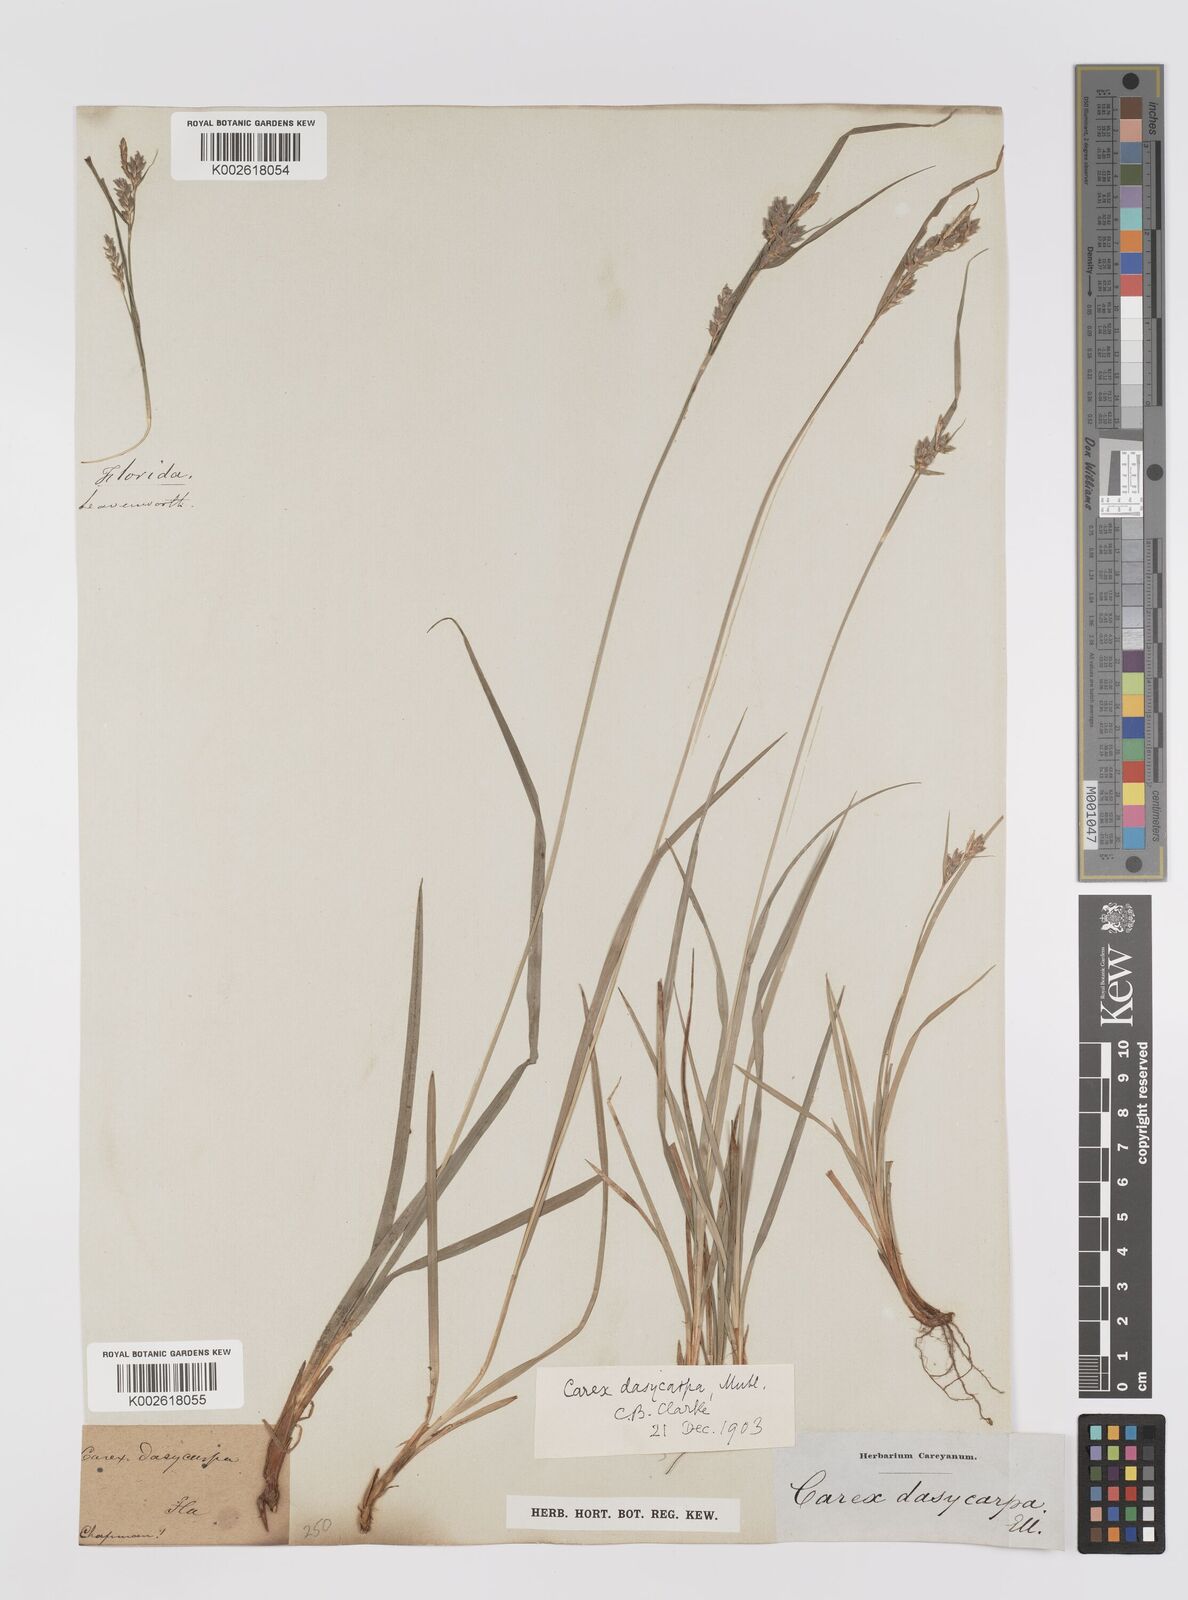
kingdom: Plantae
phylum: Tracheophyta
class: Liliopsida
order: Poales
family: Cyperaceae
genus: Carex
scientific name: Carex dasycarpa
